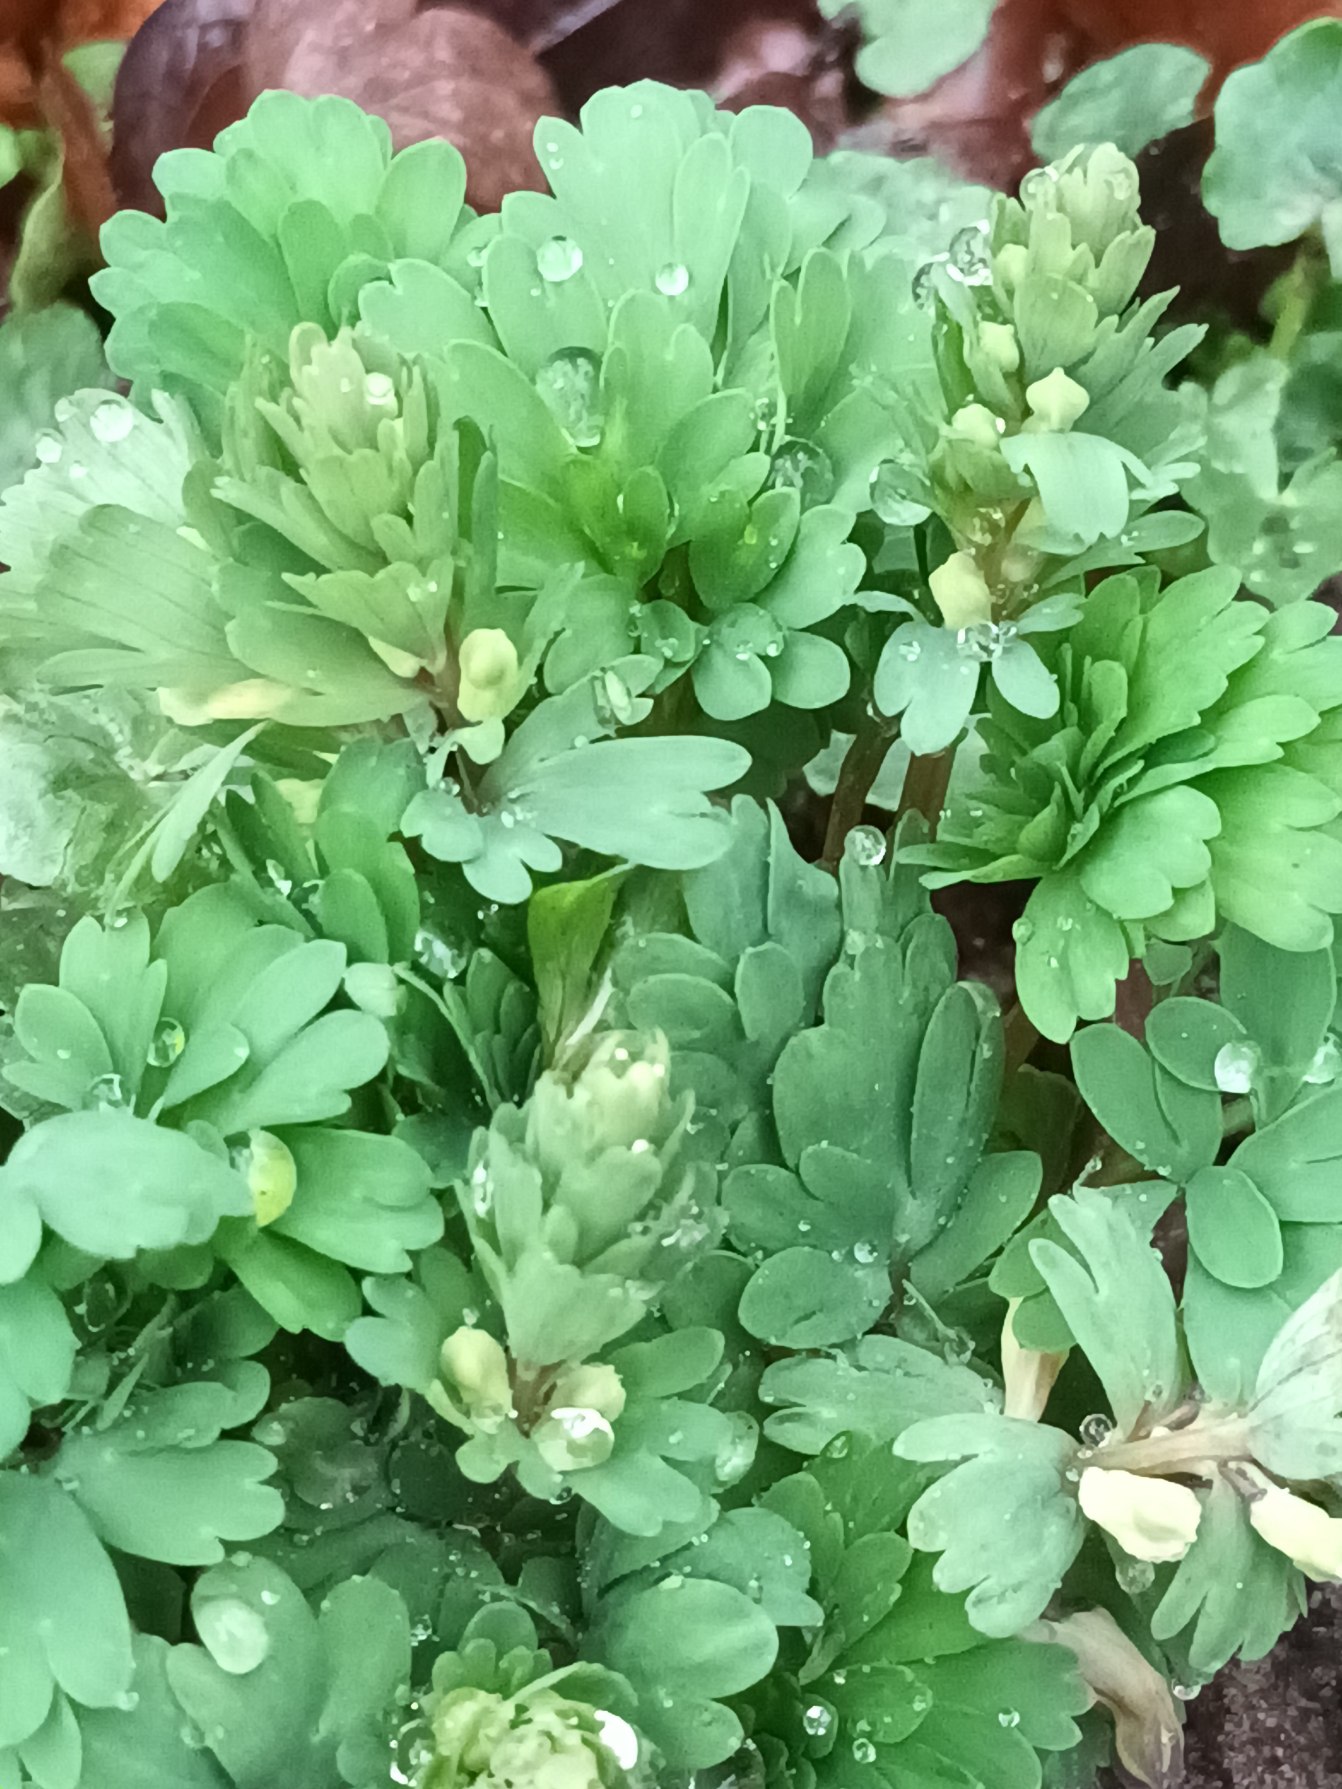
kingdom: Plantae
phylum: Tracheophyta
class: Magnoliopsida
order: Ranunculales
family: Papaveraceae
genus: Corydalis
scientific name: Corydalis solida
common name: Langstilket lærkespore
